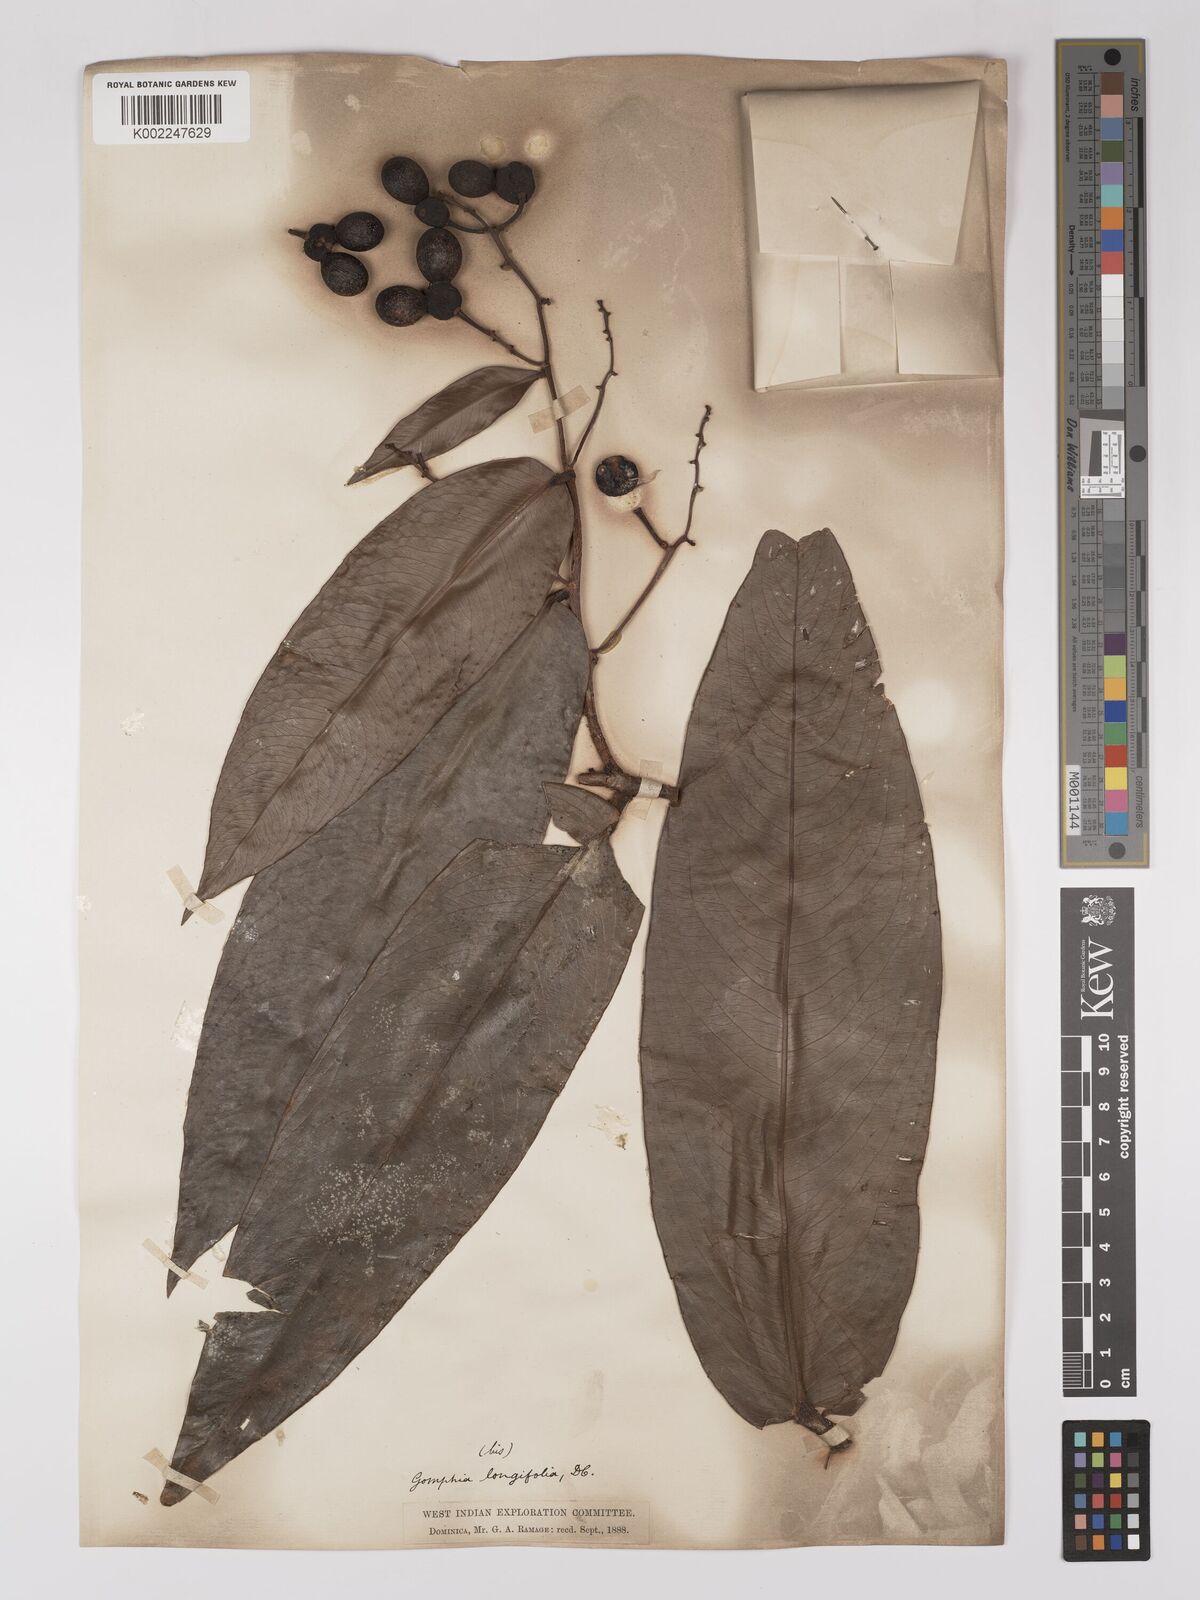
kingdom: Plantae
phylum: Tracheophyta
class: Magnoliopsida
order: Malpighiales
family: Ochnaceae
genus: Ouratea
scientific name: Ouratea longifolia
